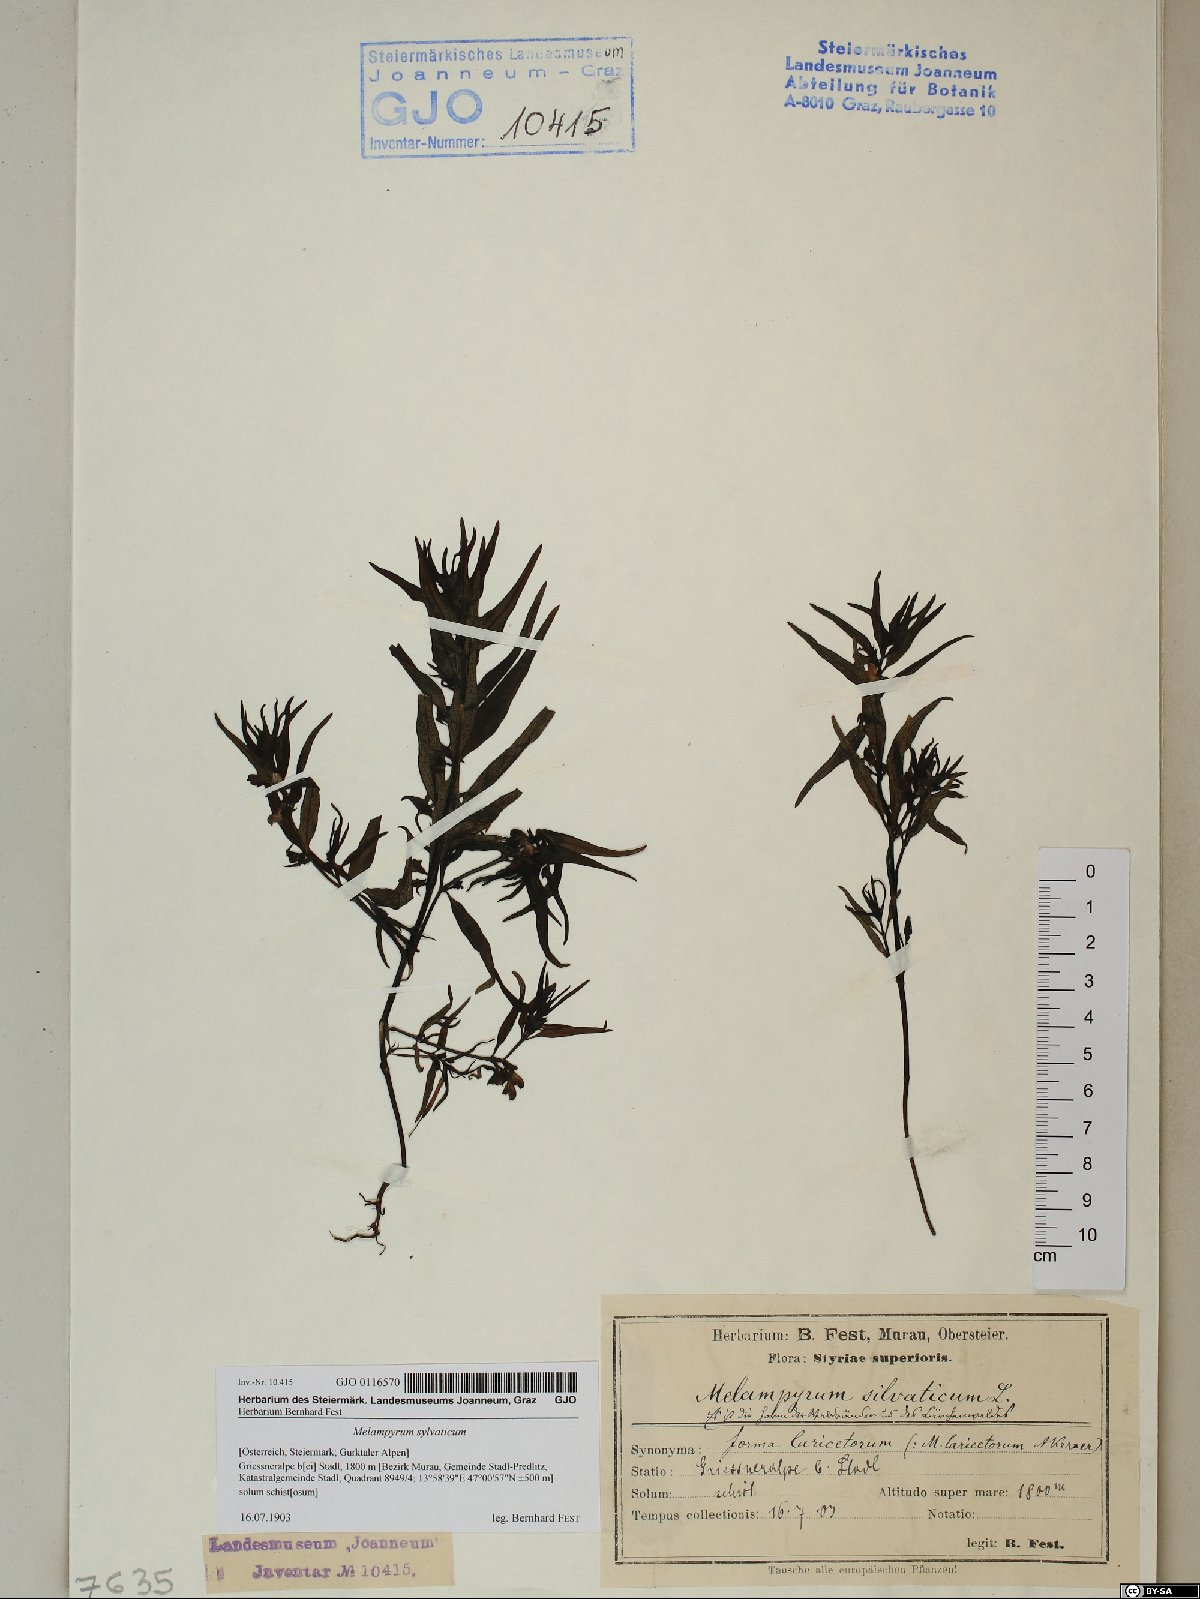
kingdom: Plantae
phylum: Tracheophyta
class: Magnoliopsida
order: Lamiales
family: Orobanchaceae
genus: Melampyrum
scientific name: Melampyrum sylvaticum
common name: Small cow-wheat
